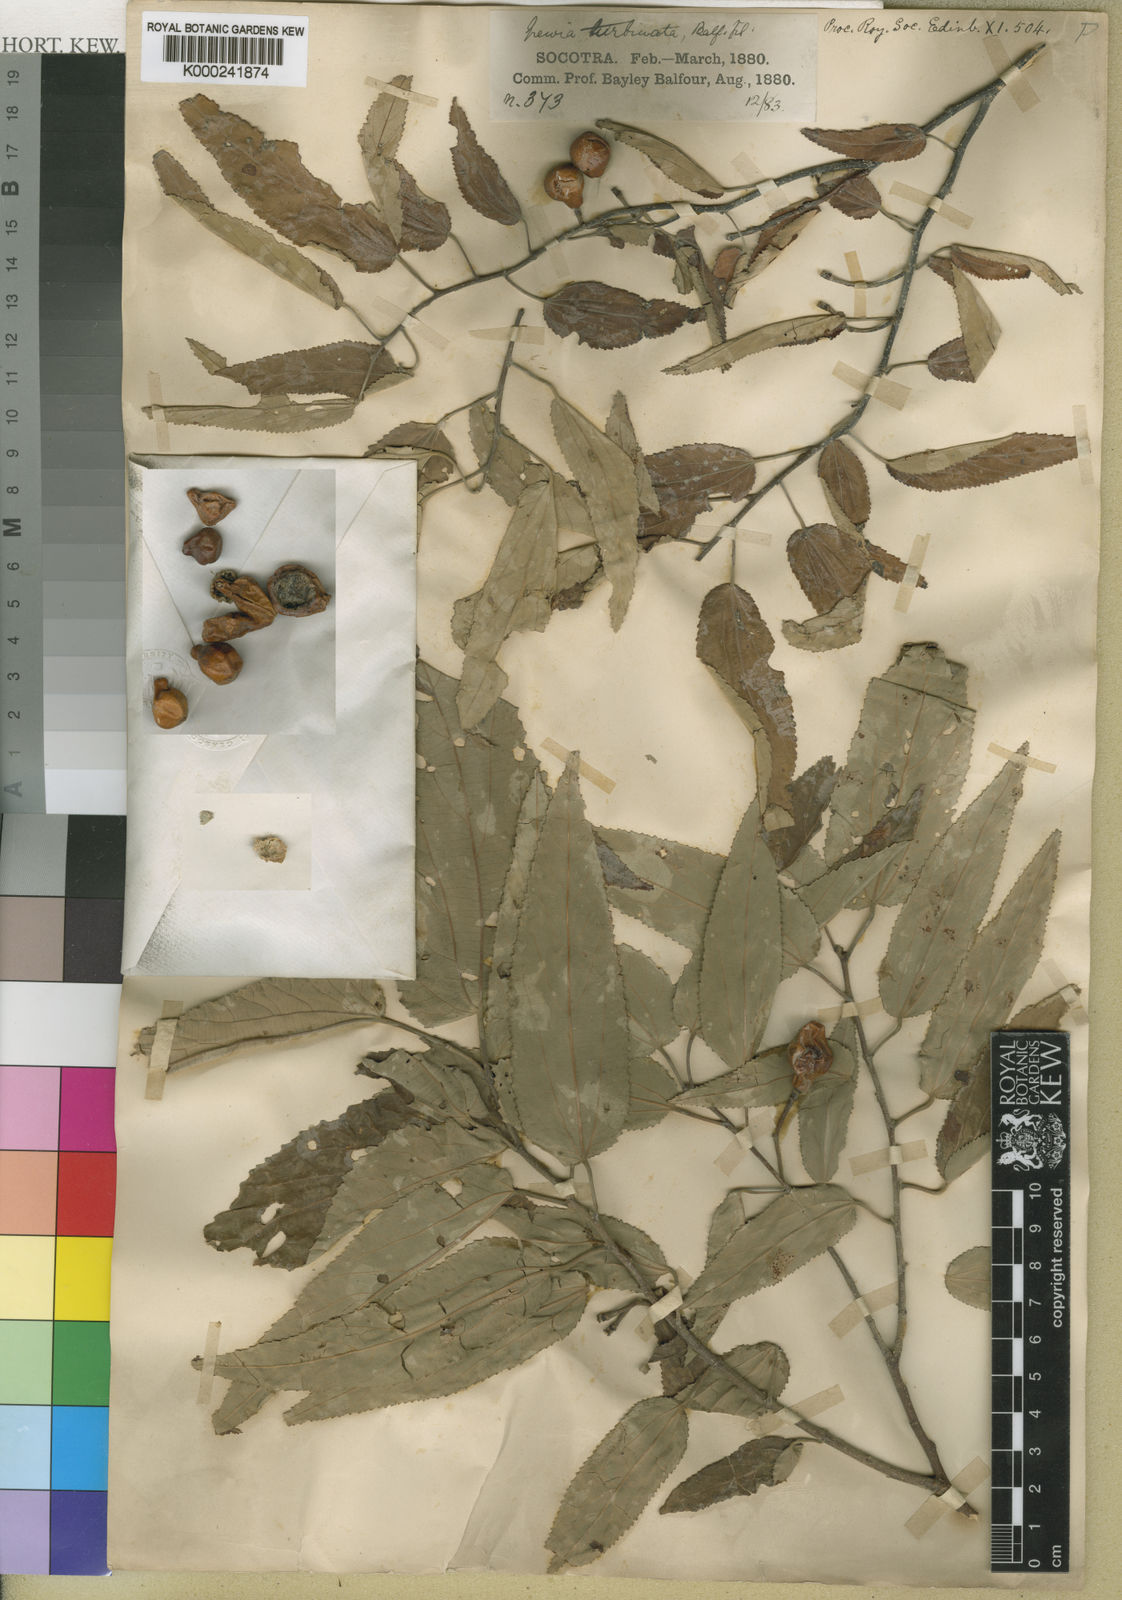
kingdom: Plantae
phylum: Tracheophyta
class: Magnoliopsida
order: Malvales
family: Malvaceae
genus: Grewia
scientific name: Grewia turbinata
